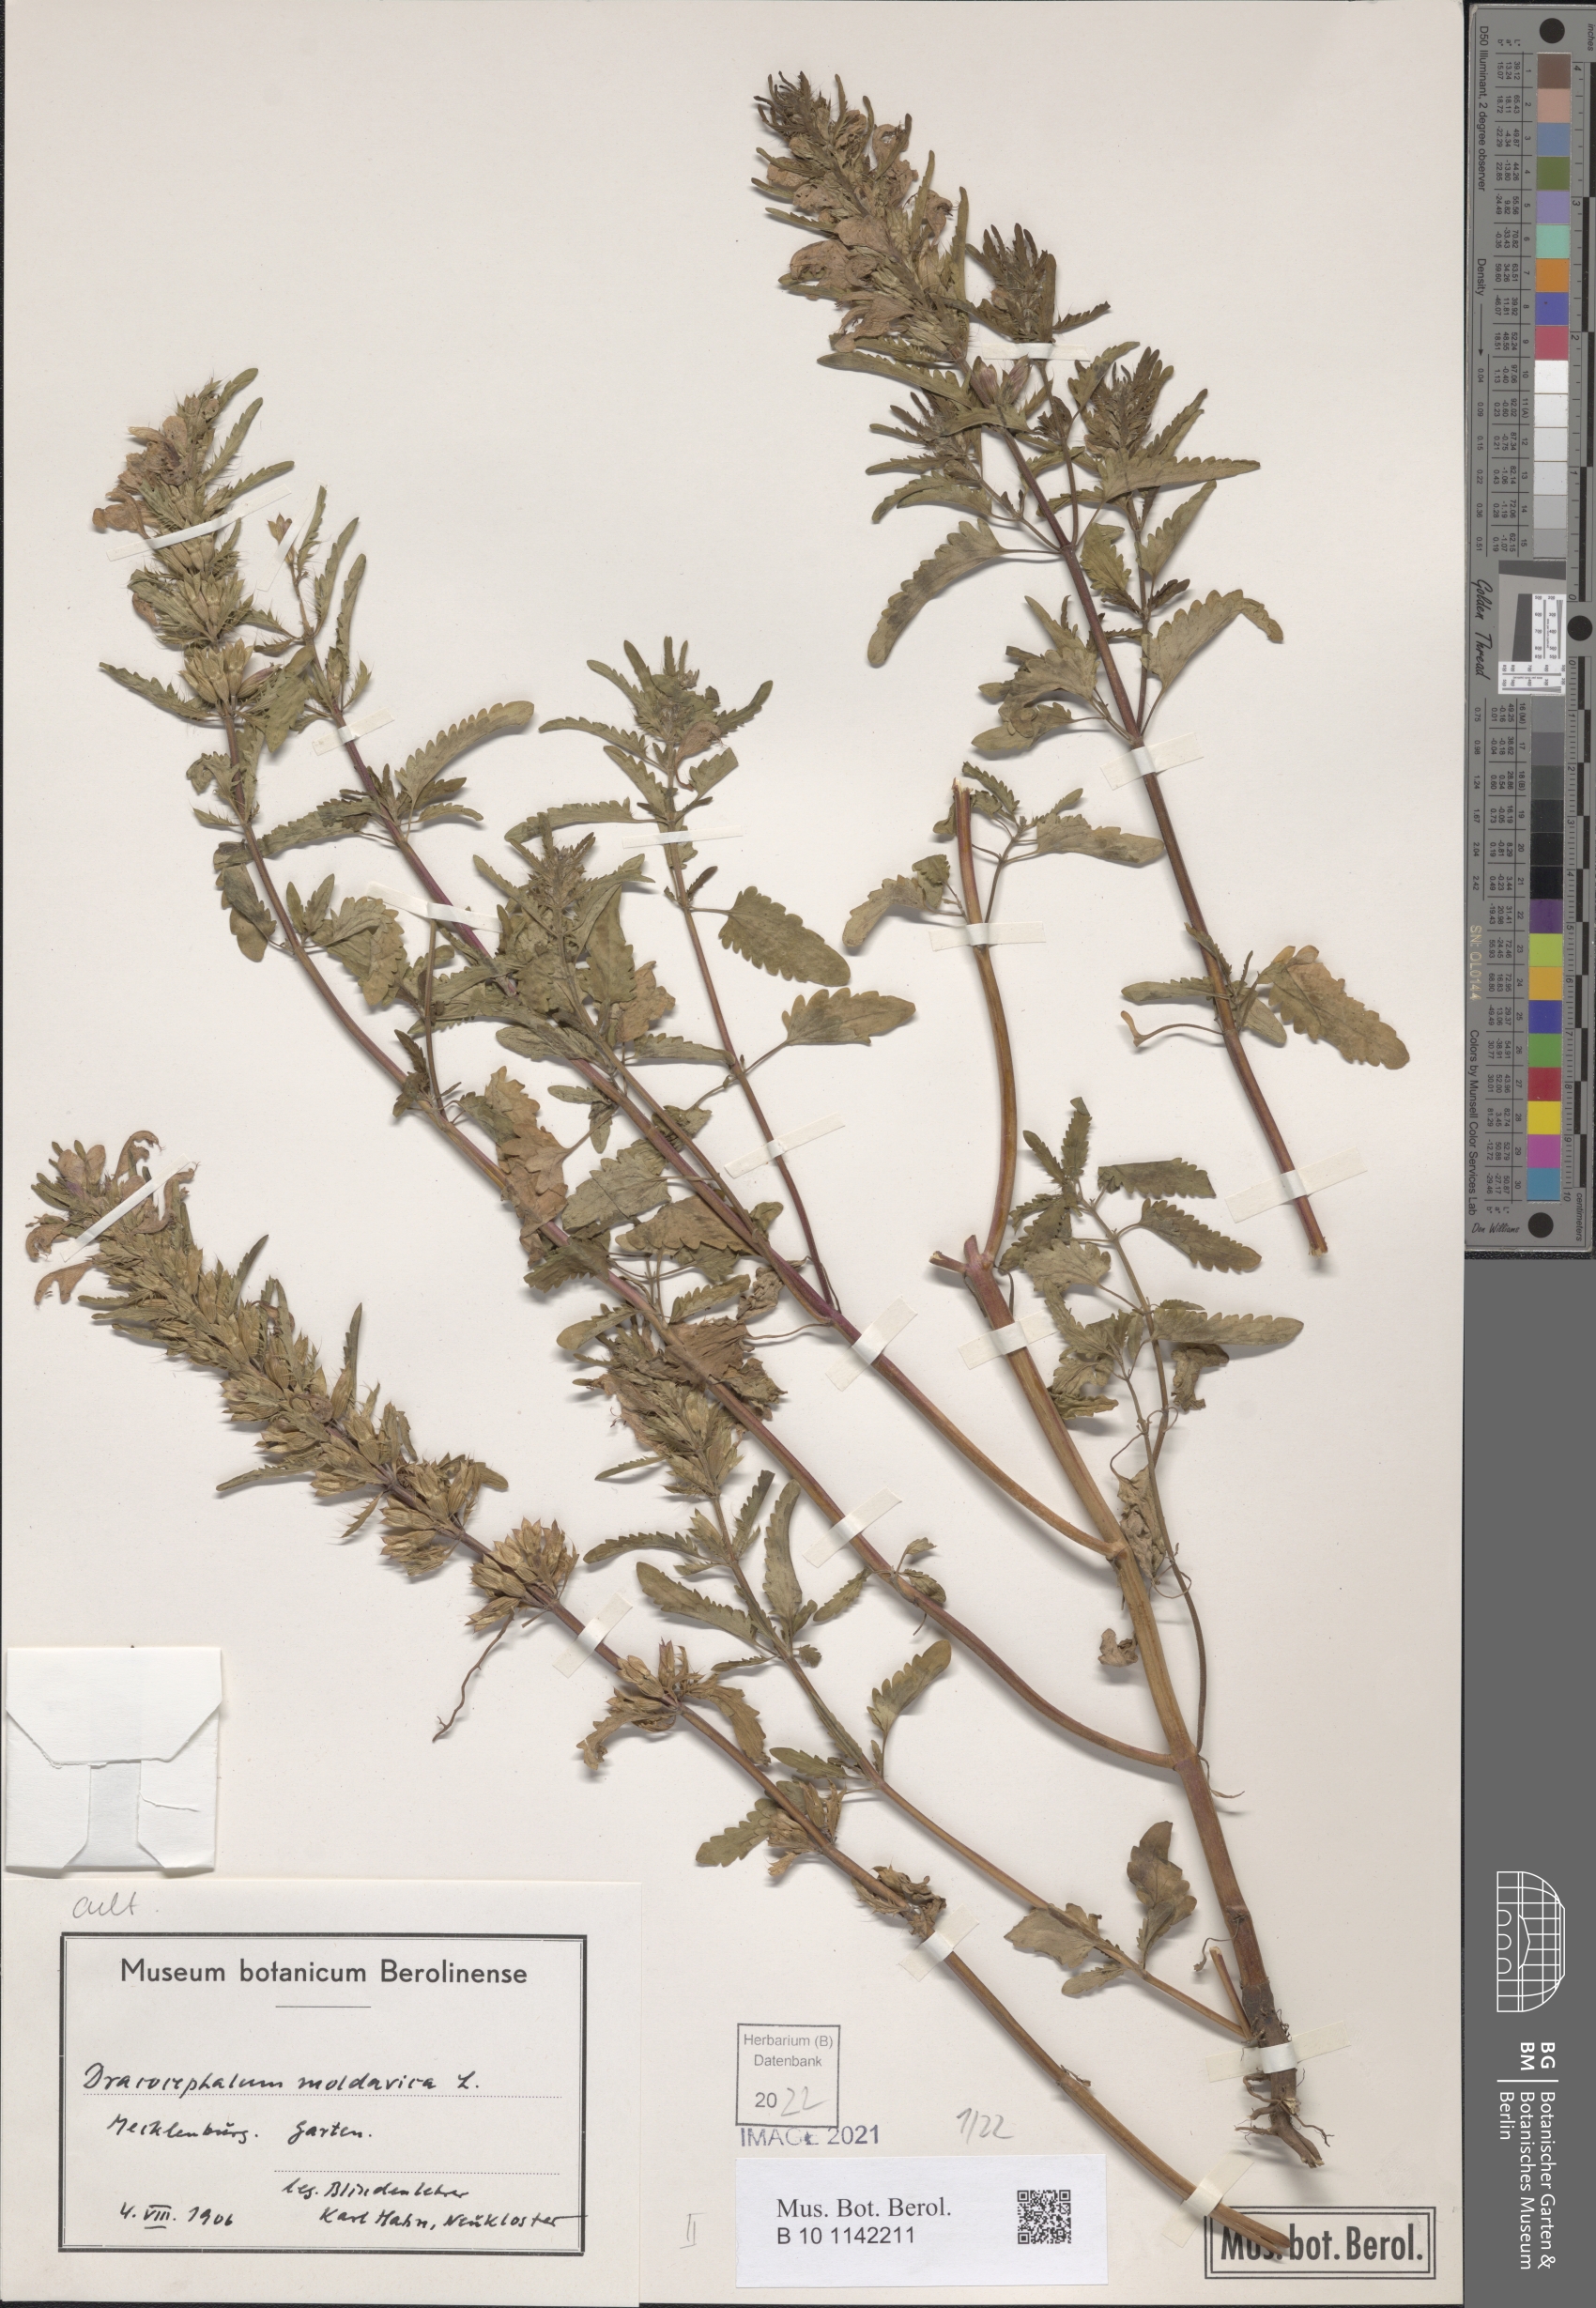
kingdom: Plantae
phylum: Tracheophyta
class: Magnoliopsida
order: Lamiales
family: Lamiaceae
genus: Dracocephalum
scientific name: Dracocephalum moldavica
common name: Moldavian dragonhead
